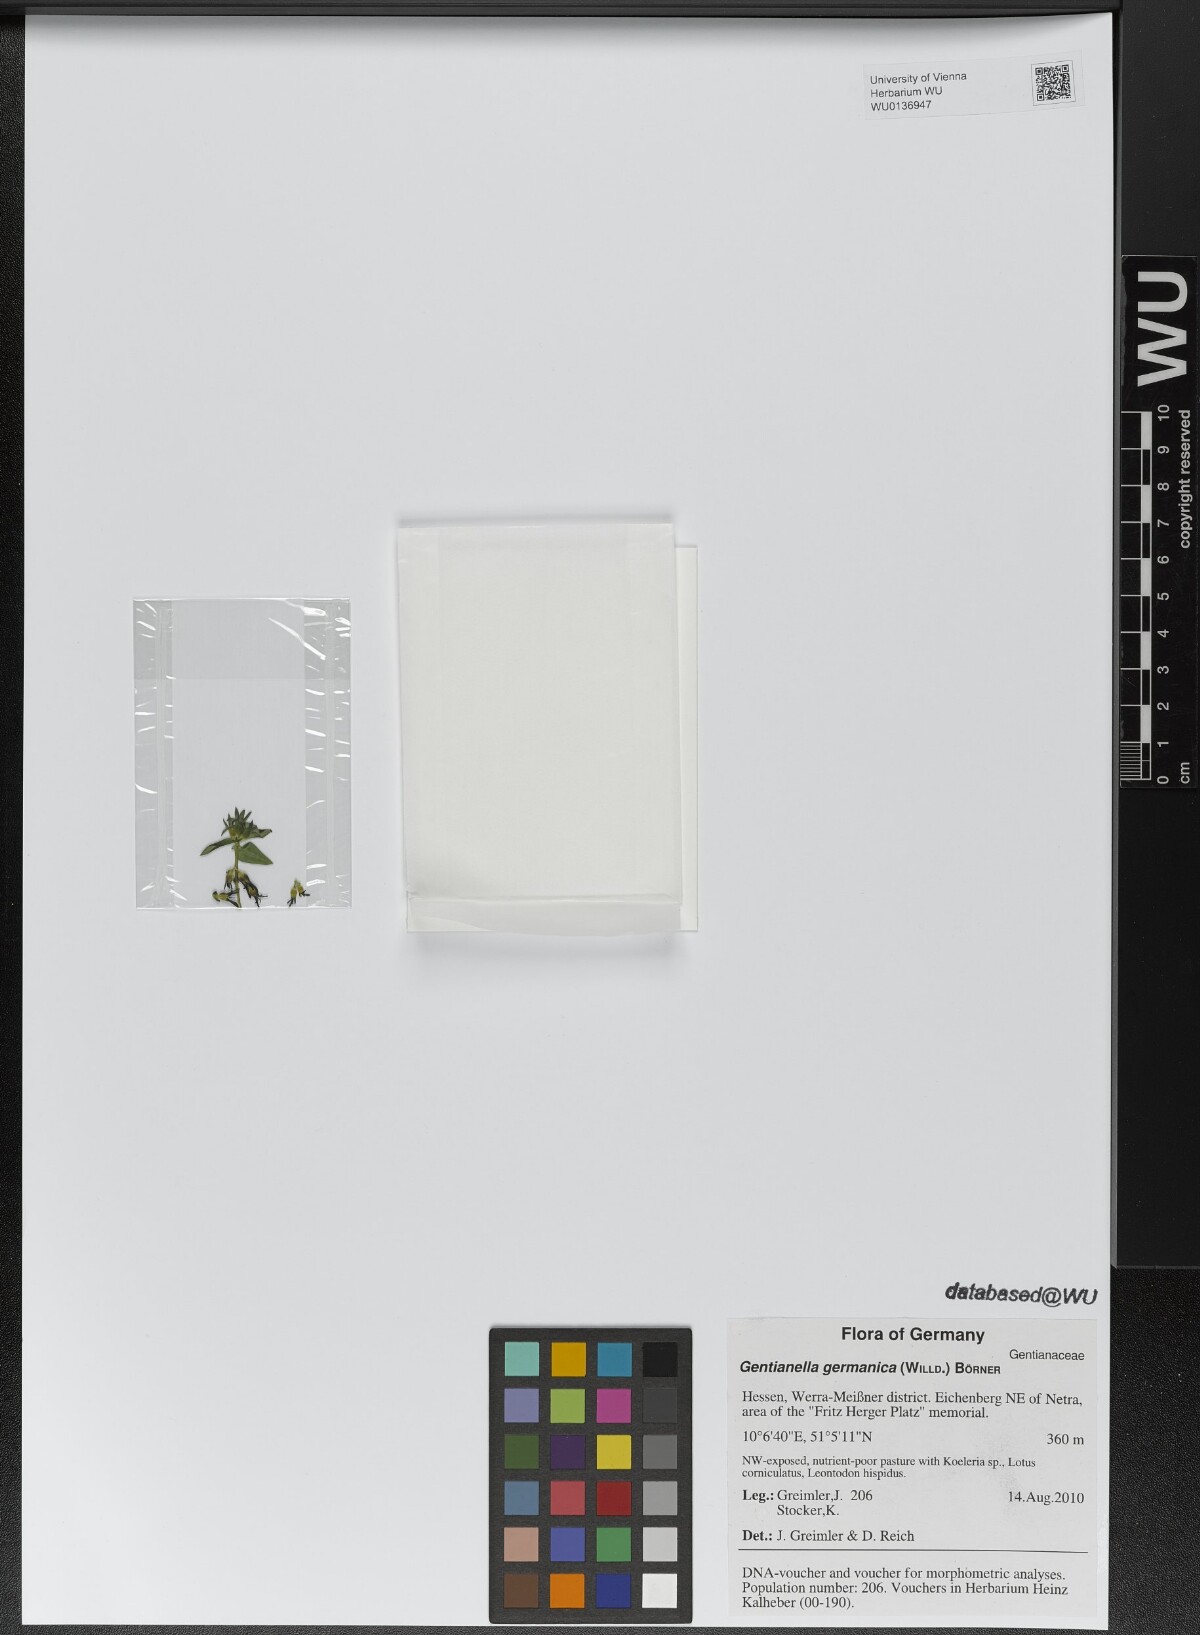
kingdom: Plantae
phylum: Tracheophyta
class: Magnoliopsida
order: Gentianales
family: Gentianaceae
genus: Gentianella
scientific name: Gentianella germanica
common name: Chiltern-gentian
